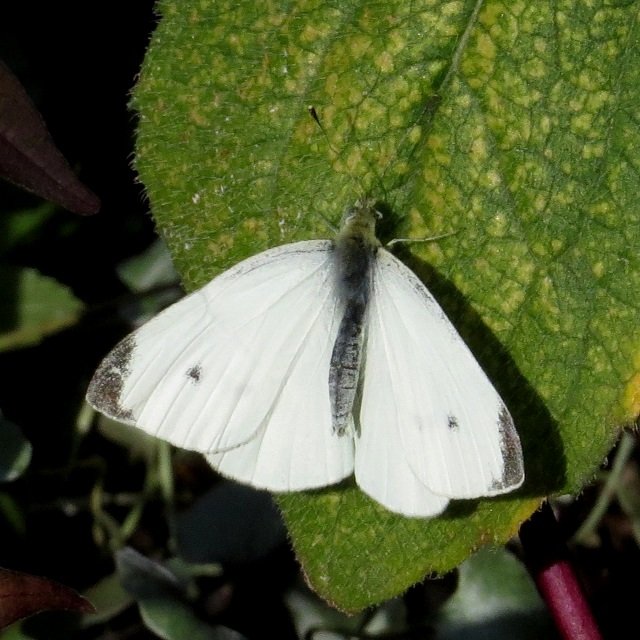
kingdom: Animalia
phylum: Arthropoda
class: Insecta
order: Lepidoptera
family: Pieridae
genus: Pieris
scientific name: Pieris rapae
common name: Cabbage White
